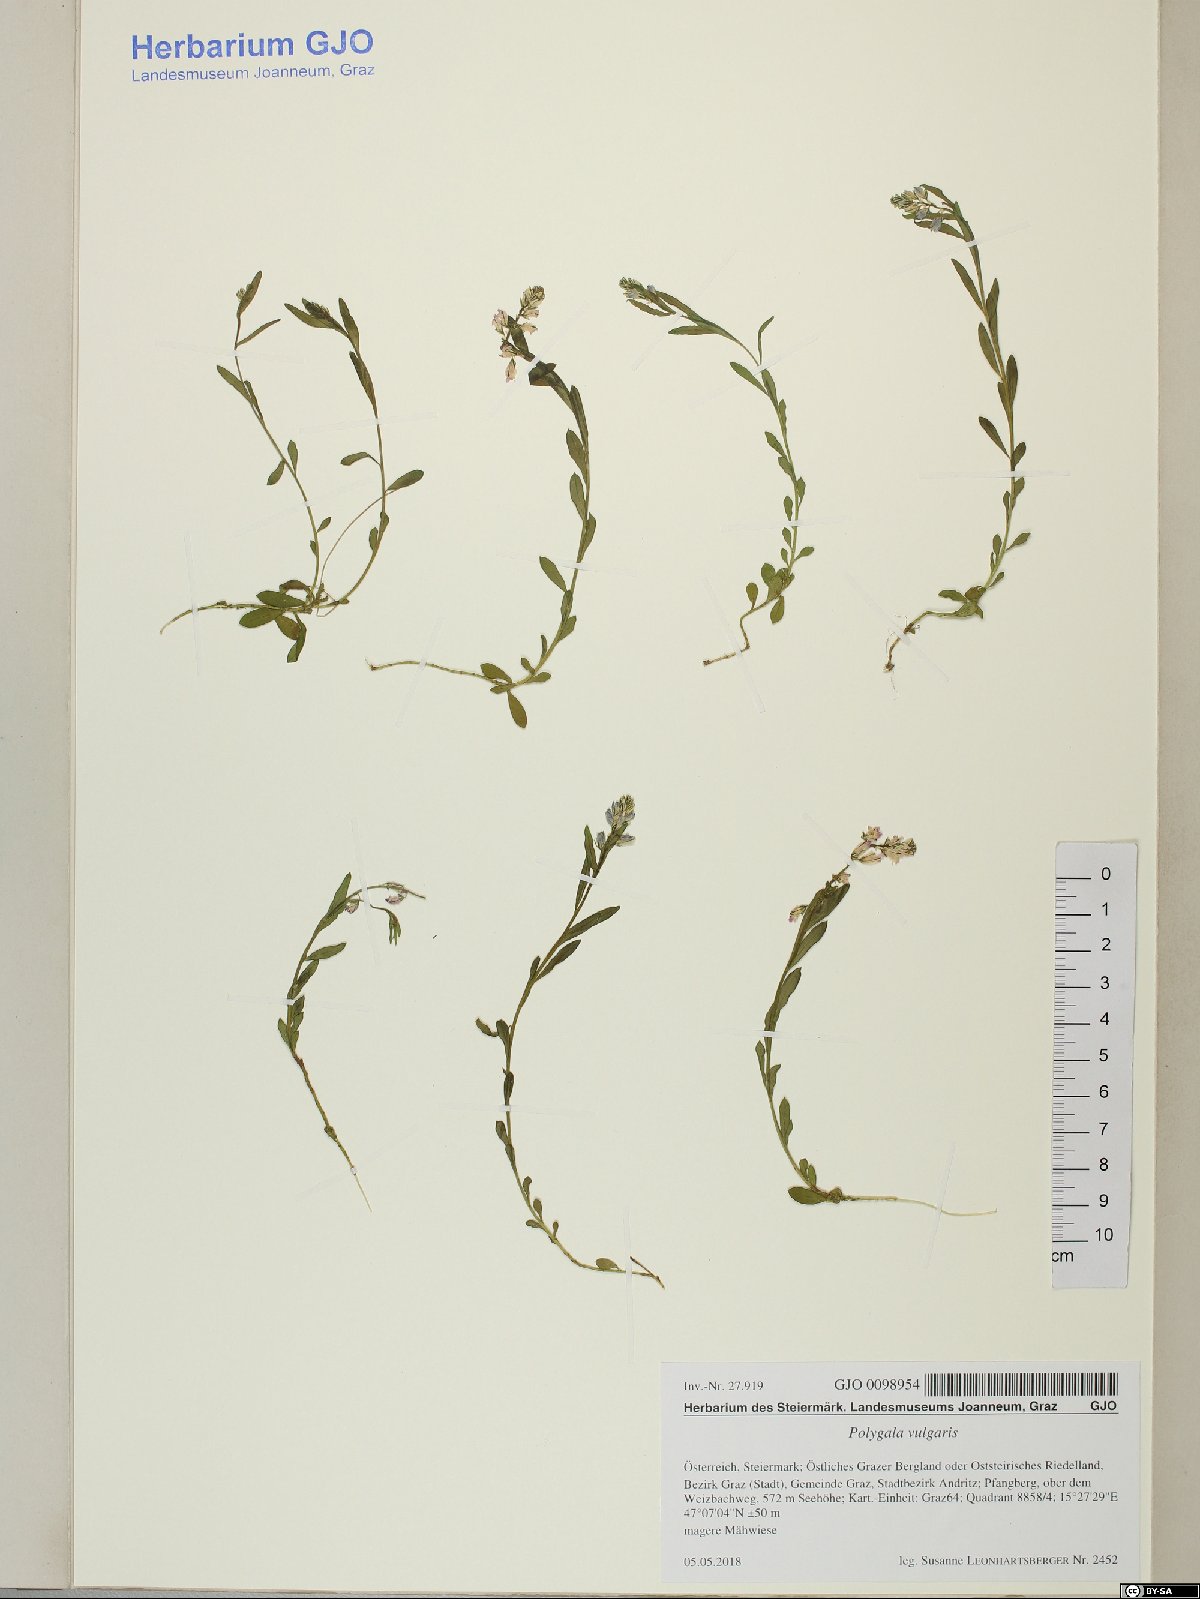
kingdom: Plantae
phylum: Tracheophyta
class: Magnoliopsida
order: Fabales
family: Polygalaceae
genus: Polygala
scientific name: Polygala vulgaris
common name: Common milkwort
